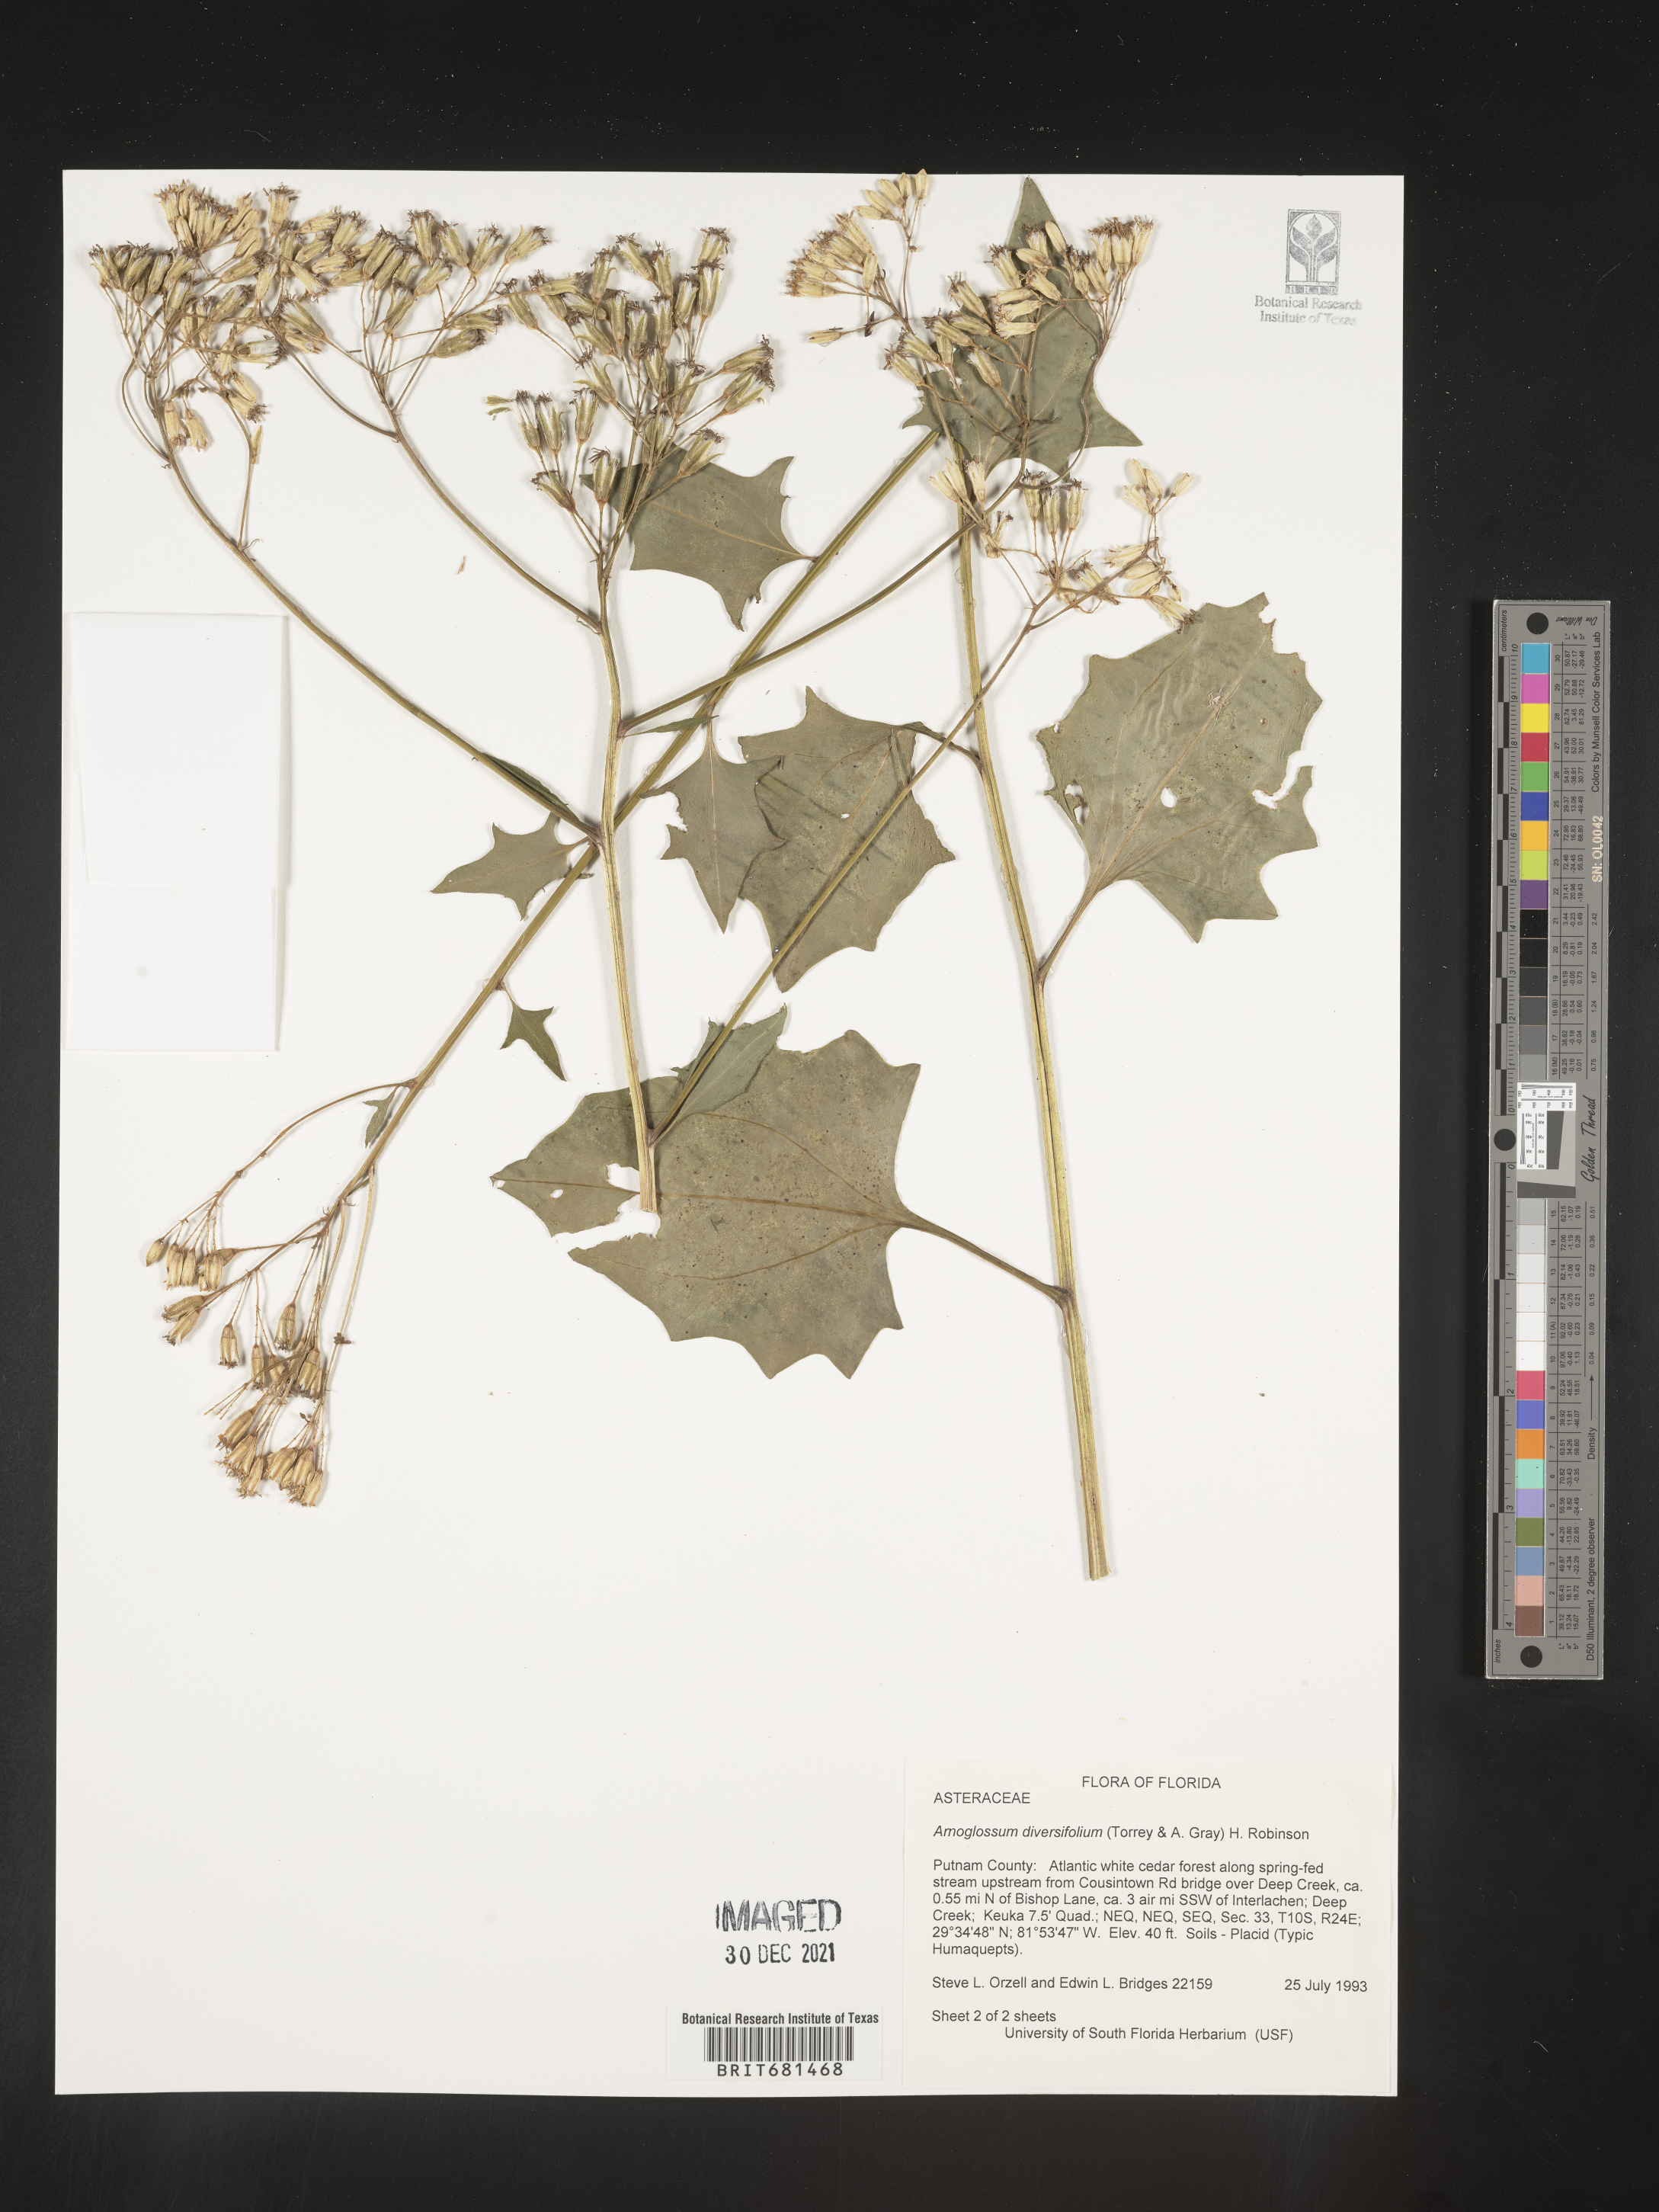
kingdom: Plantae
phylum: Tracheophyta
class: Magnoliopsida
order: Asterales
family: Asteraceae
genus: Arnoglossum
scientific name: Arnoglossum diversifolium
